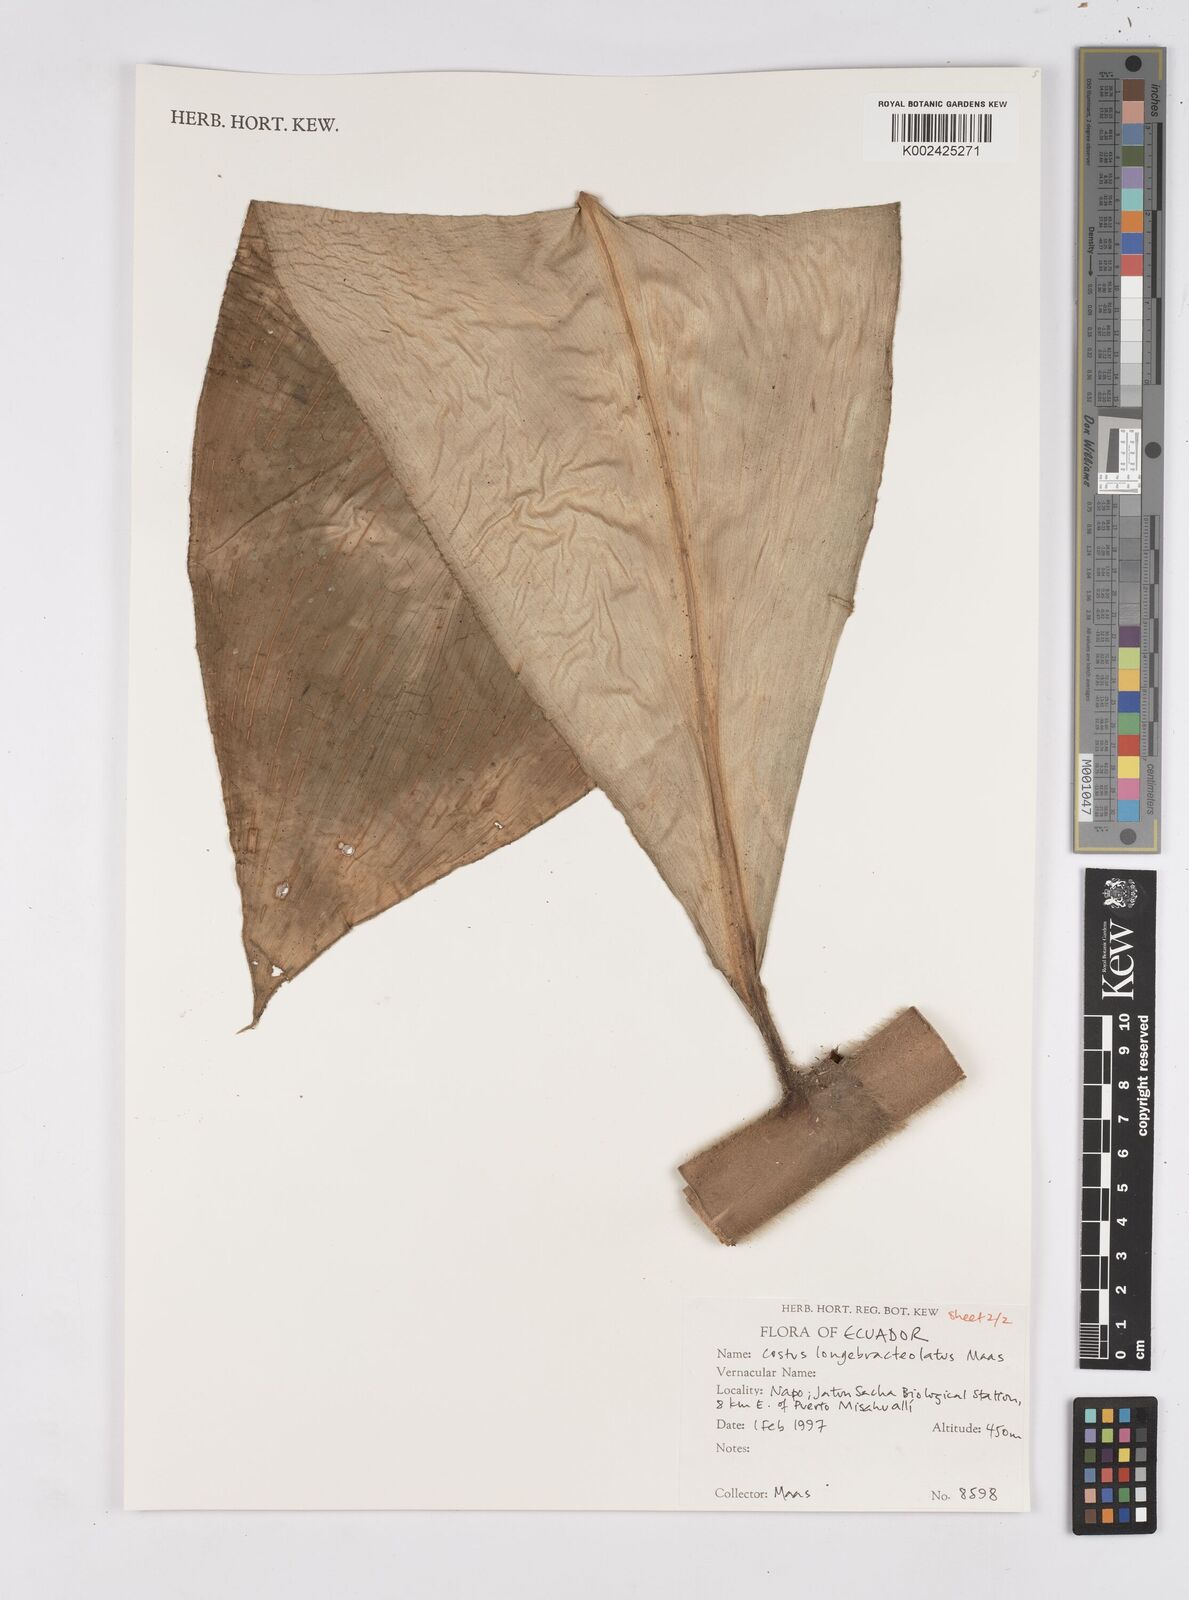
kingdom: Plantae
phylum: Tracheophyta
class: Liliopsida
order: Zingiberales
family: Costaceae
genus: Costus
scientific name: Costus longibracteolatus
